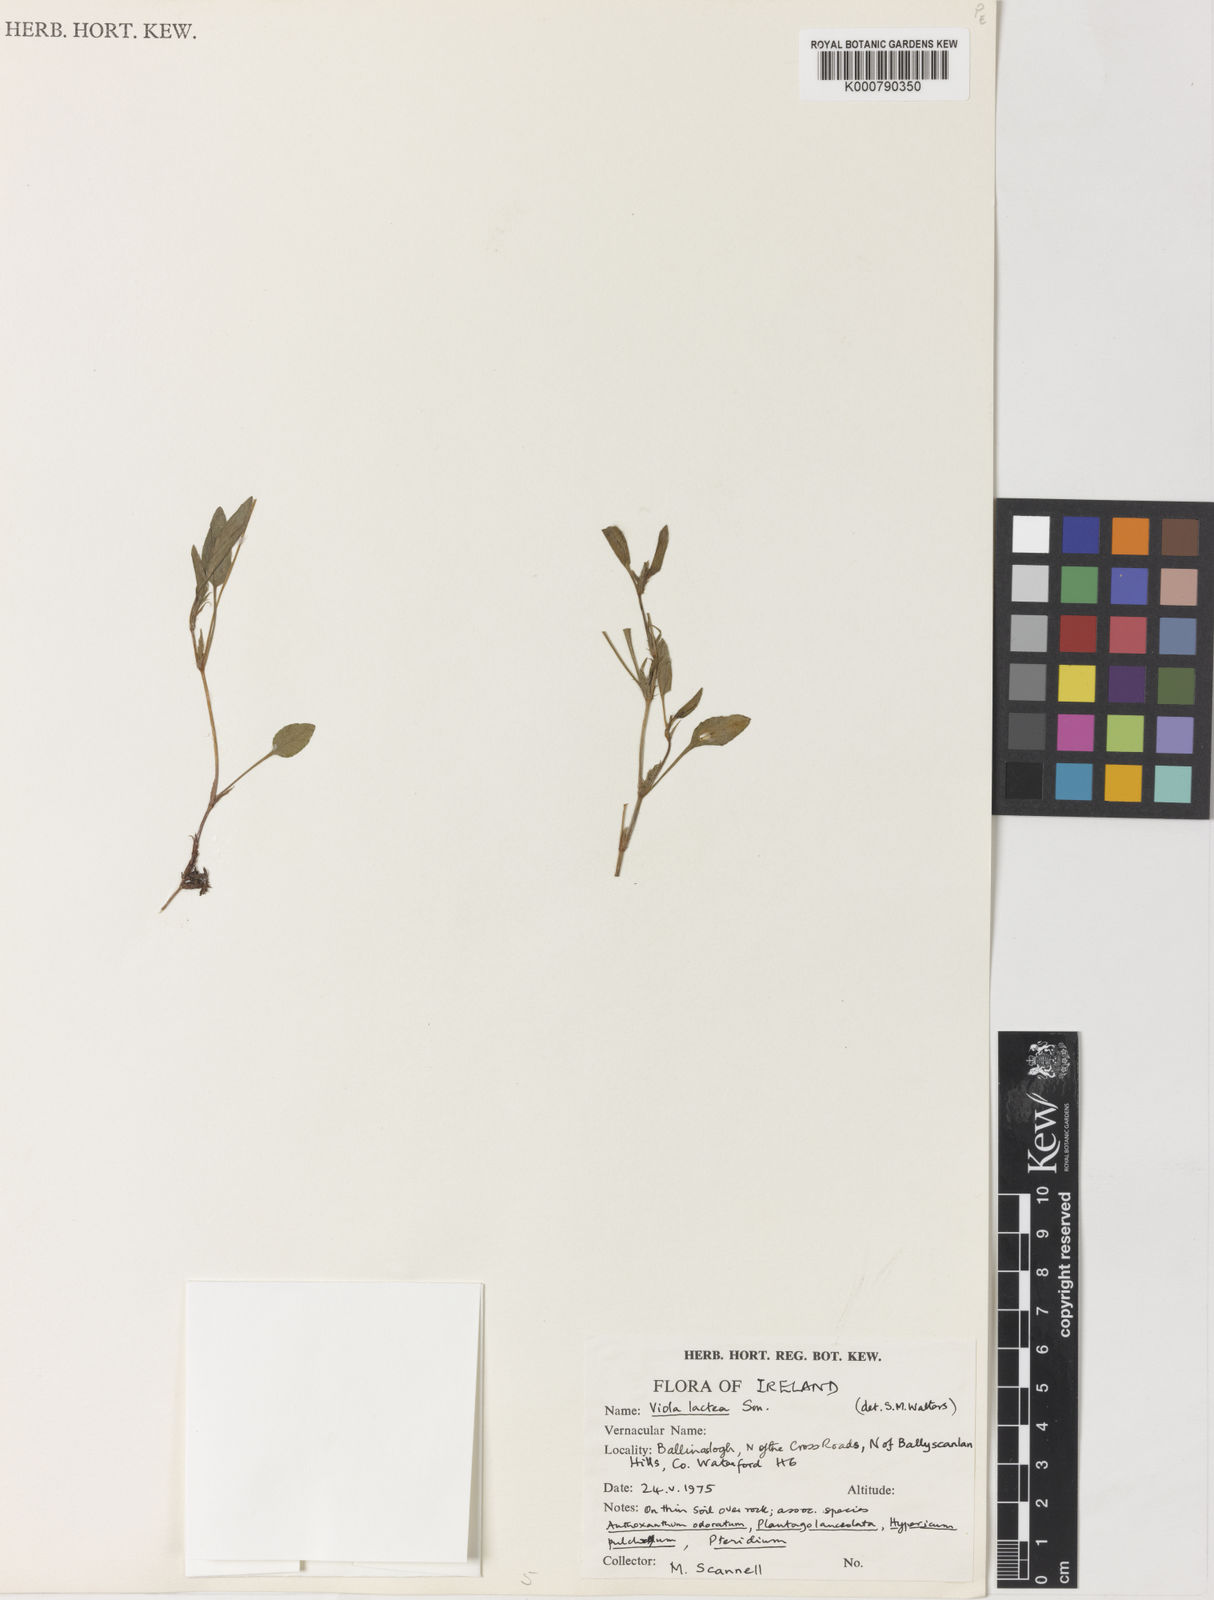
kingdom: Plantae
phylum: Tracheophyta
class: Magnoliopsida
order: Malpighiales
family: Violaceae
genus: Viola
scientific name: Viola lactea
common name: Pale dog-violet
